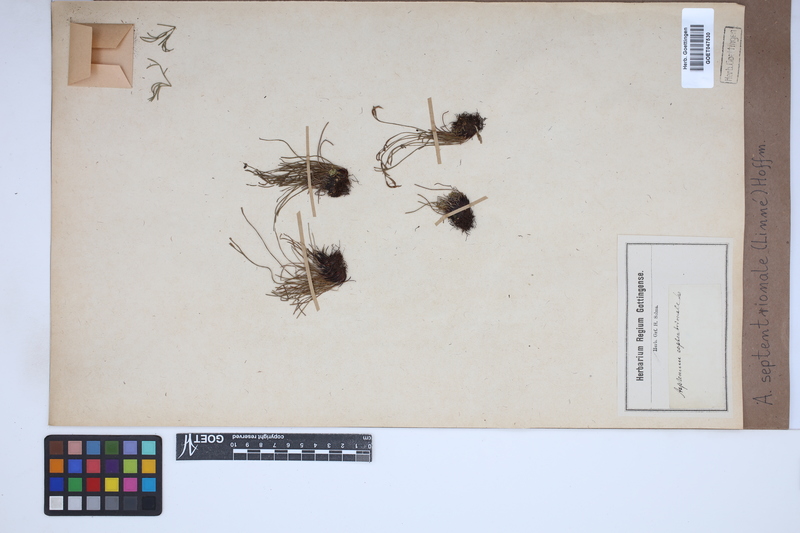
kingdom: Plantae
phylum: Tracheophyta
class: Polypodiopsida
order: Polypodiales
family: Aspleniaceae
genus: Asplenium
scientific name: Asplenium septentrionale
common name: Forked spleenwort
